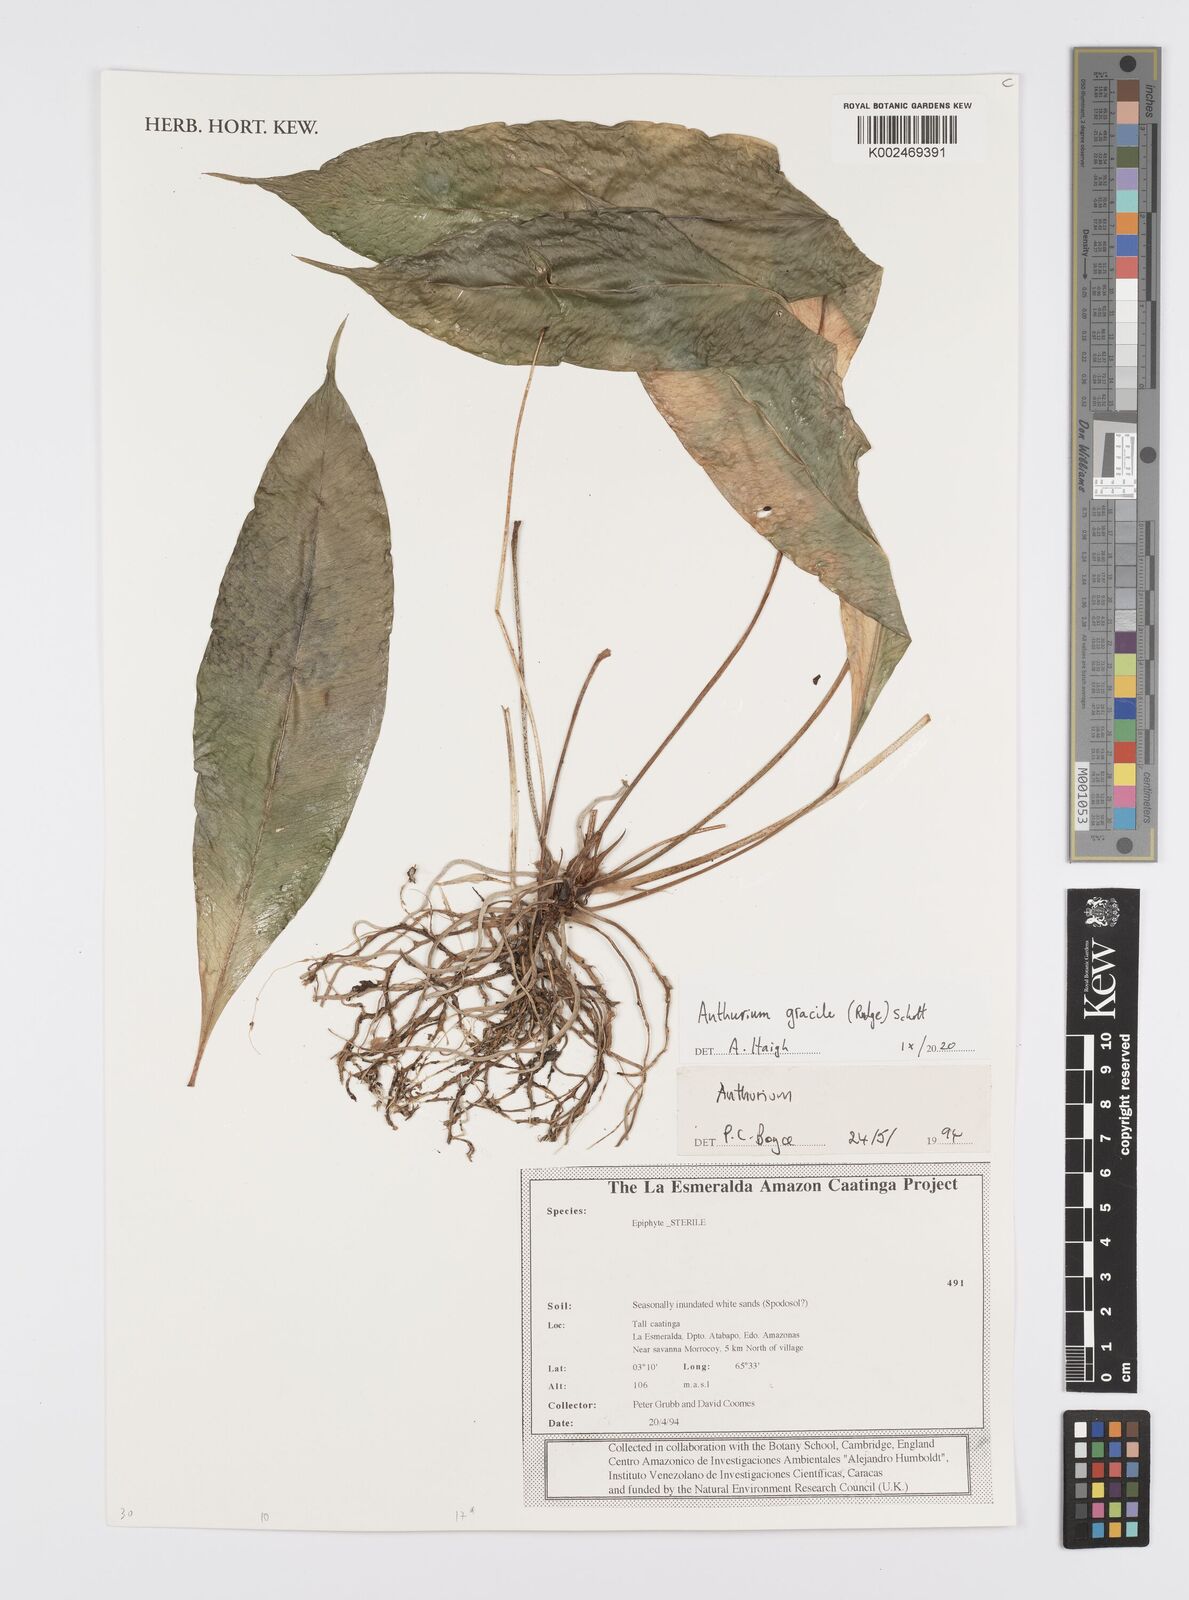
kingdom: Plantae
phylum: Tracheophyta
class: Liliopsida
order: Alismatales
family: Araceae
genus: Anthurium
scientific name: Anthurium gracile
